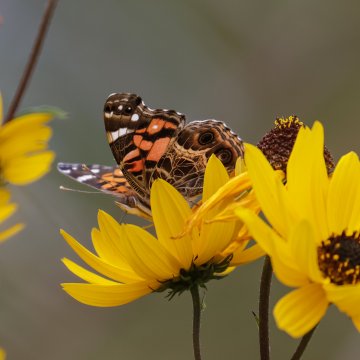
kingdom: Animalia
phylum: Arthropoda
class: Insecta
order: Lepidoptera
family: Nymphalidae
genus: Vanessa
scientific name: Vanessa virginiensis
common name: American Lady
